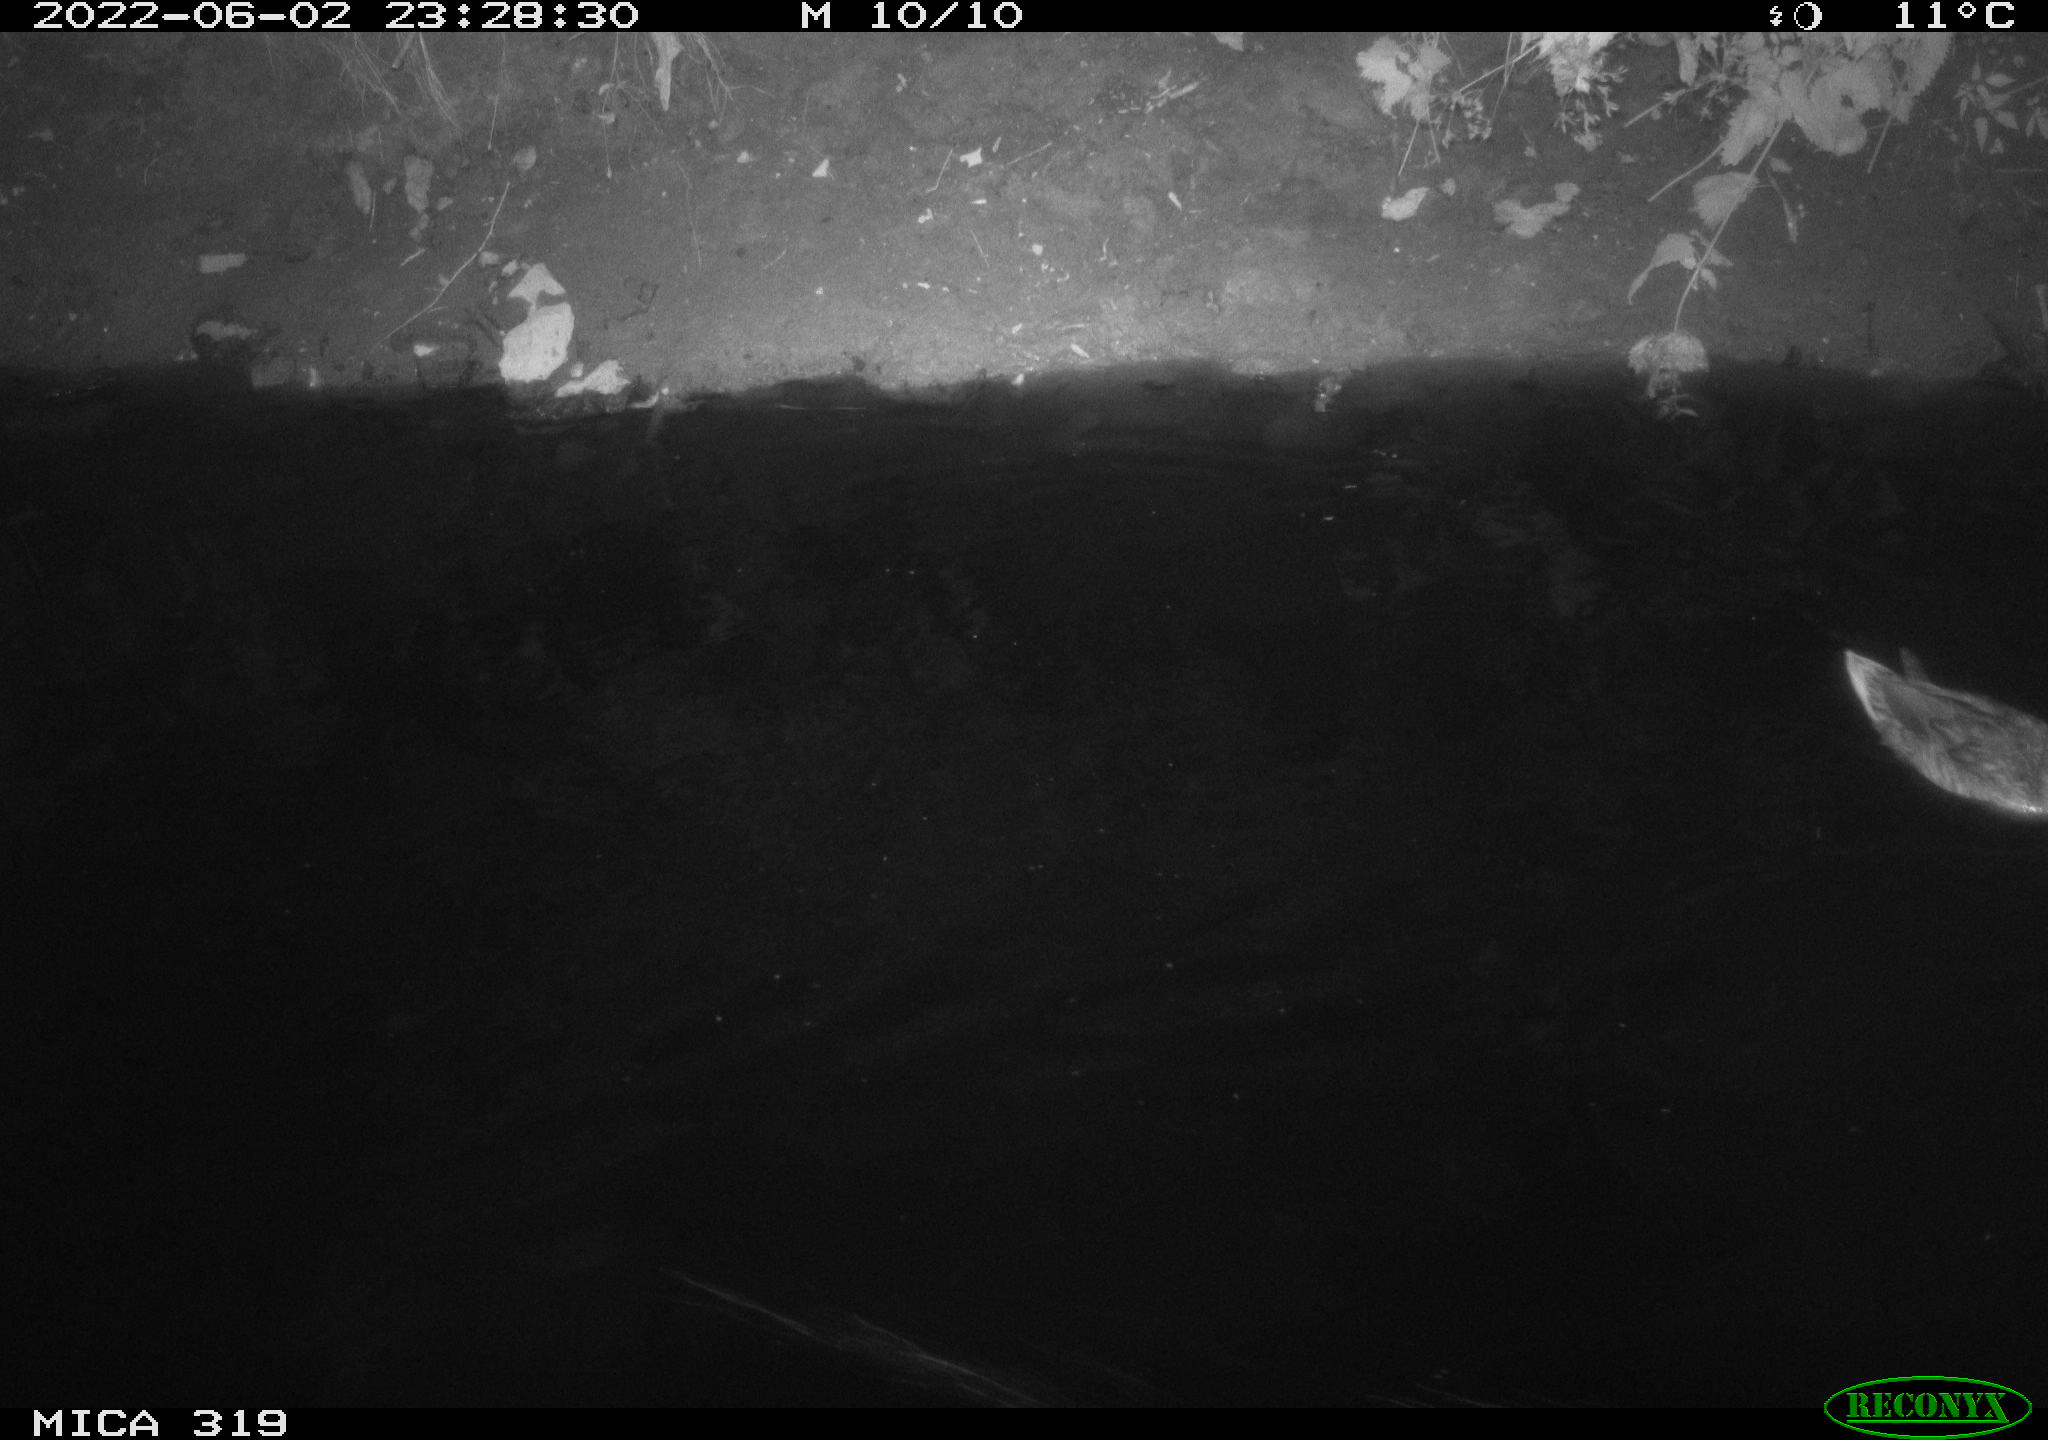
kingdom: Animalia
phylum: Chordata
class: Aves
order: Anseriformes
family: Anatidae
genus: Anas
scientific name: Anas
